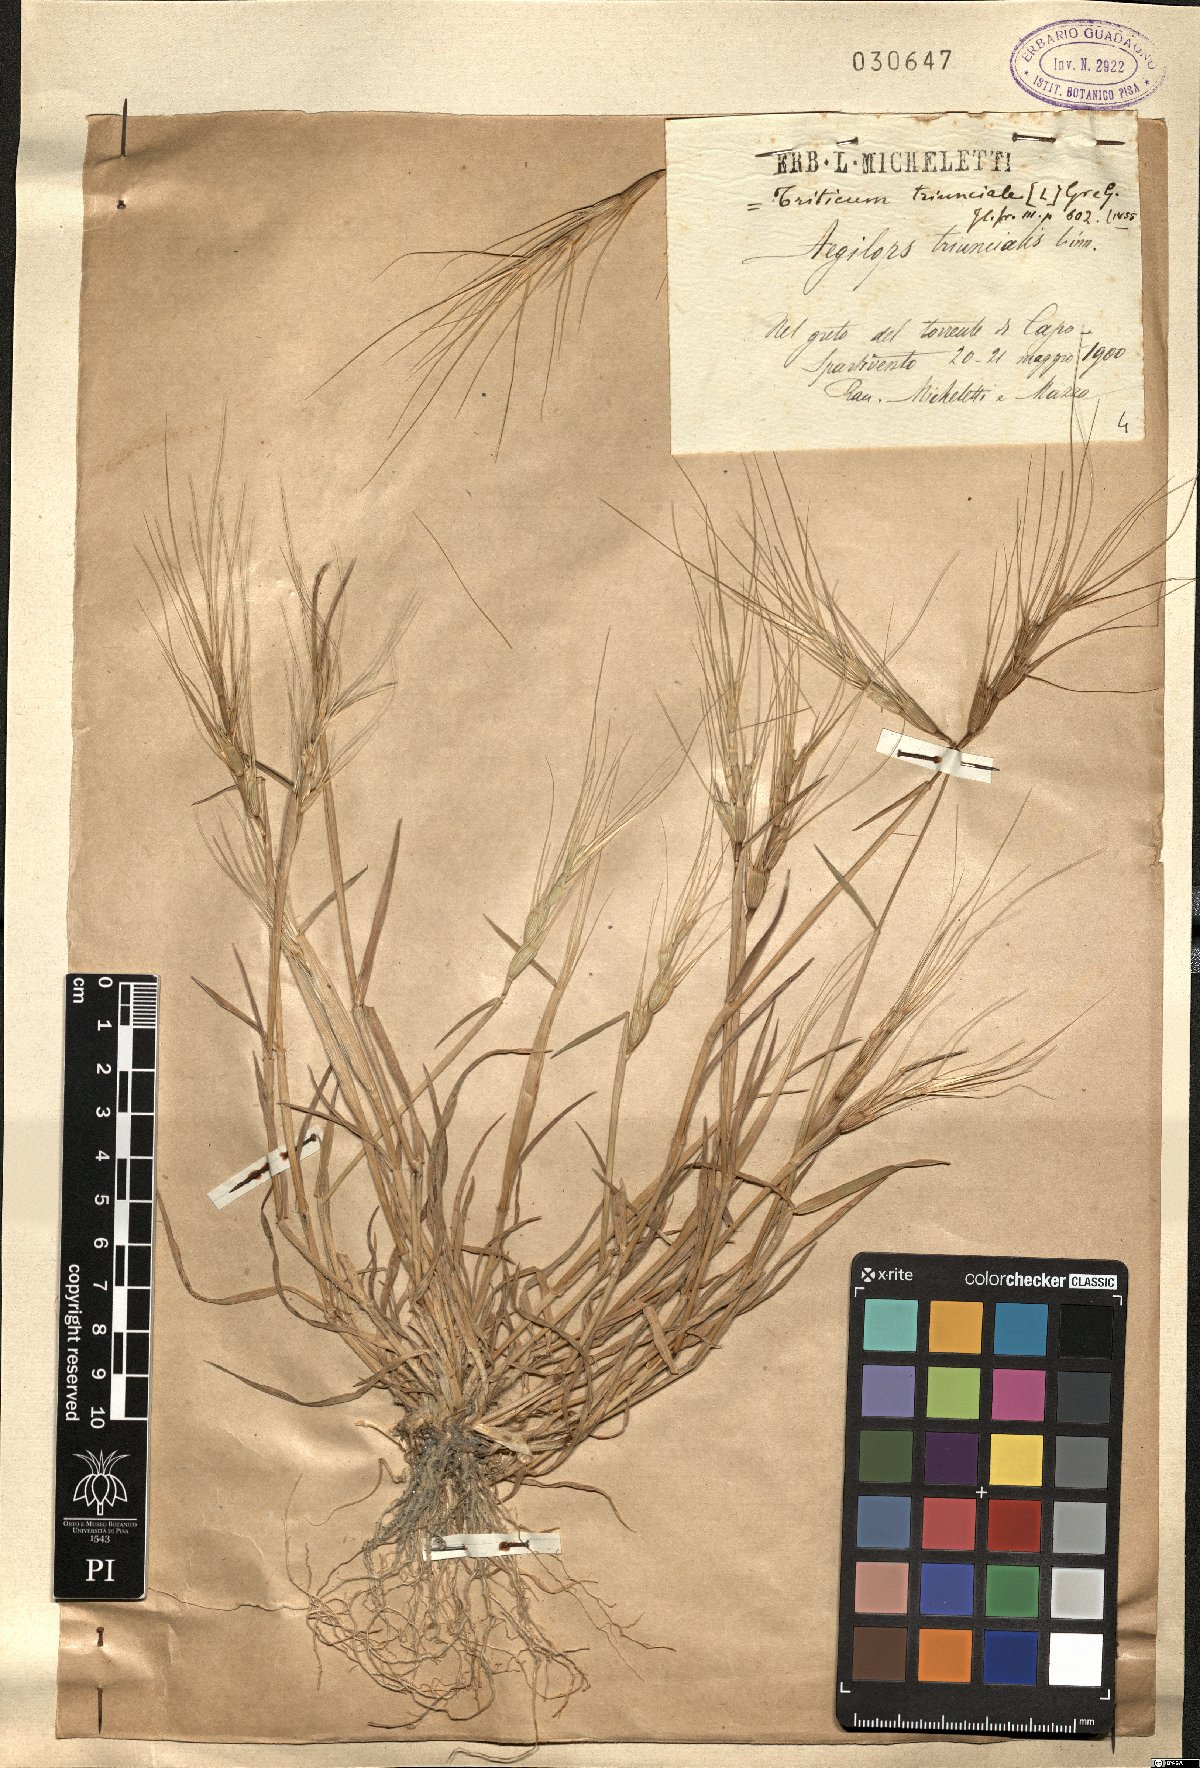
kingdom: Plantae
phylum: Tracheophyta
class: Liliopsida
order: Poales
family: Poaceae
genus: Aegilops
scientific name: Aegilops triuncialis
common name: Barb goat grass
